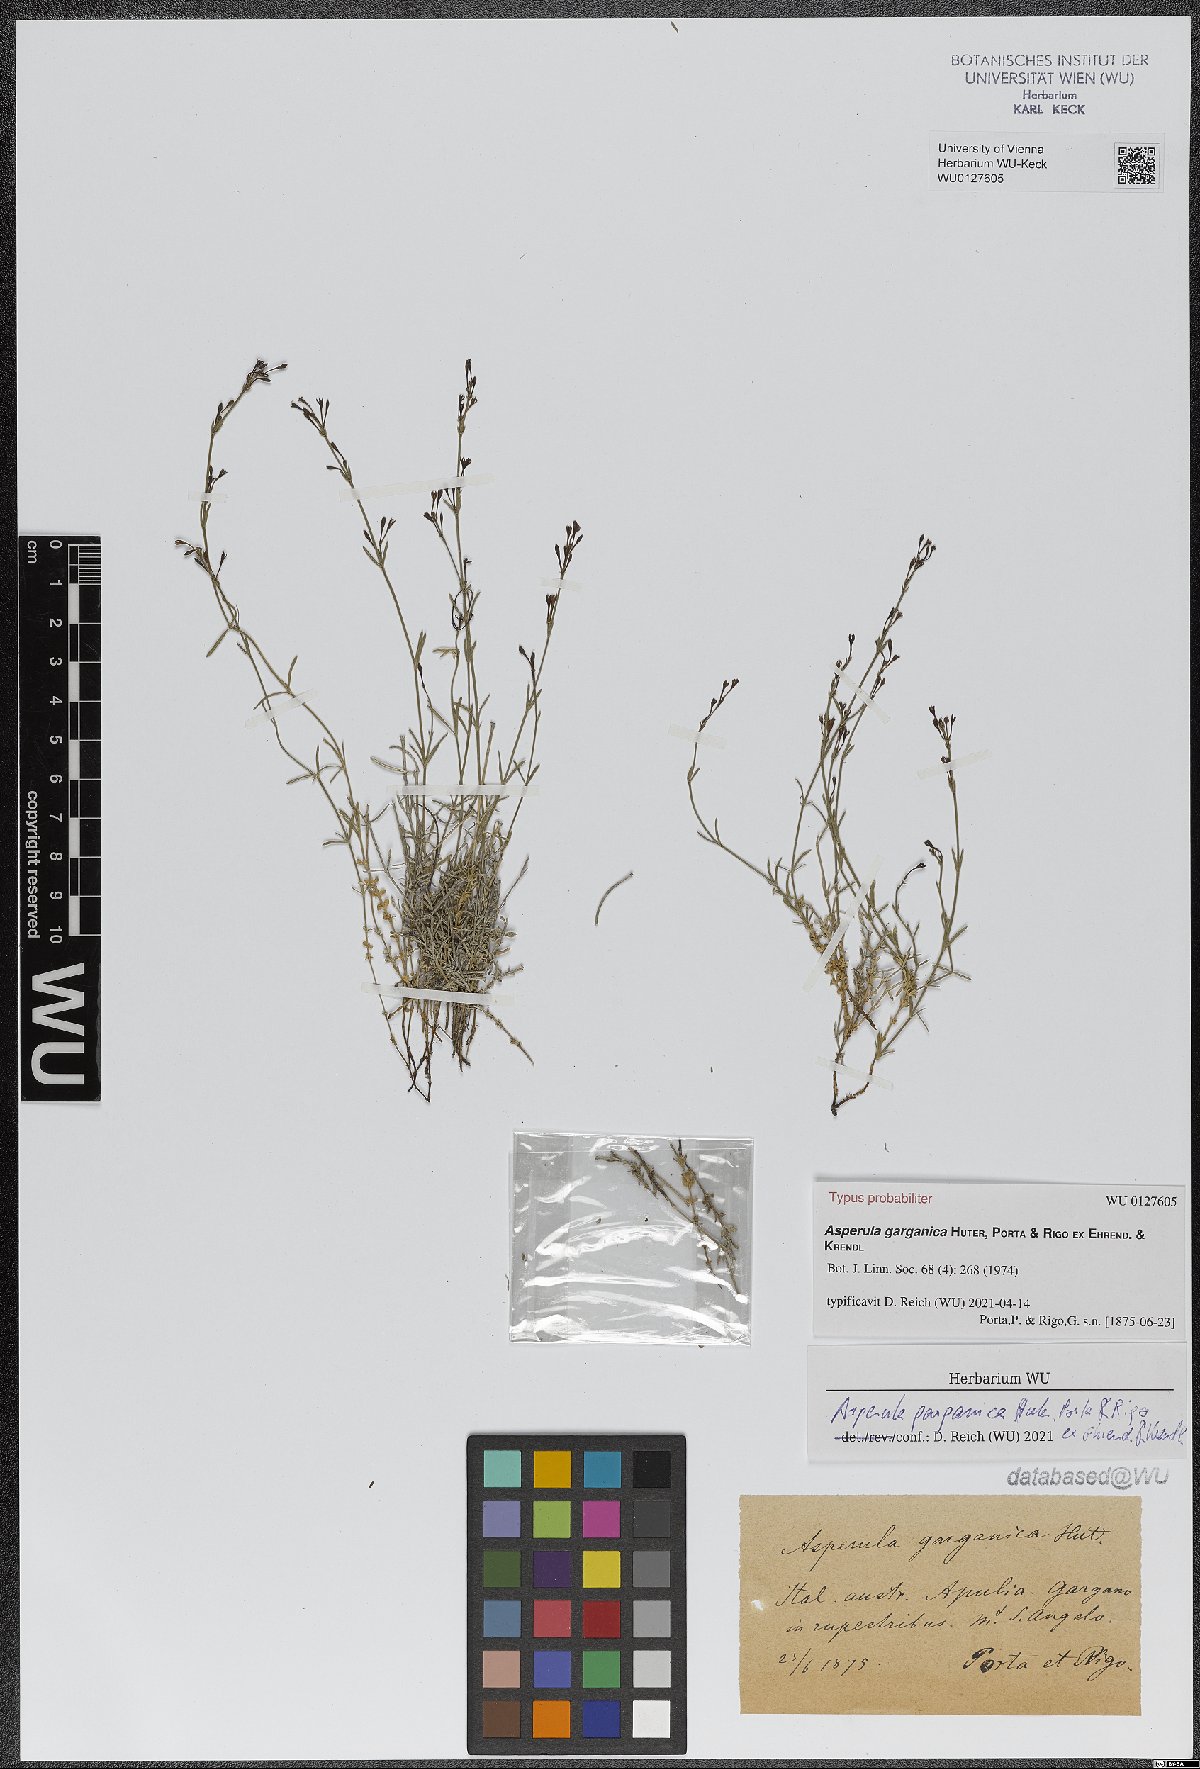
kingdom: Plantae
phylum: Tracheophyta
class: Magnoliopsida
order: Gentianales
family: Rubiaceae
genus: Cynanchica
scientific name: Cynanchica garganica
